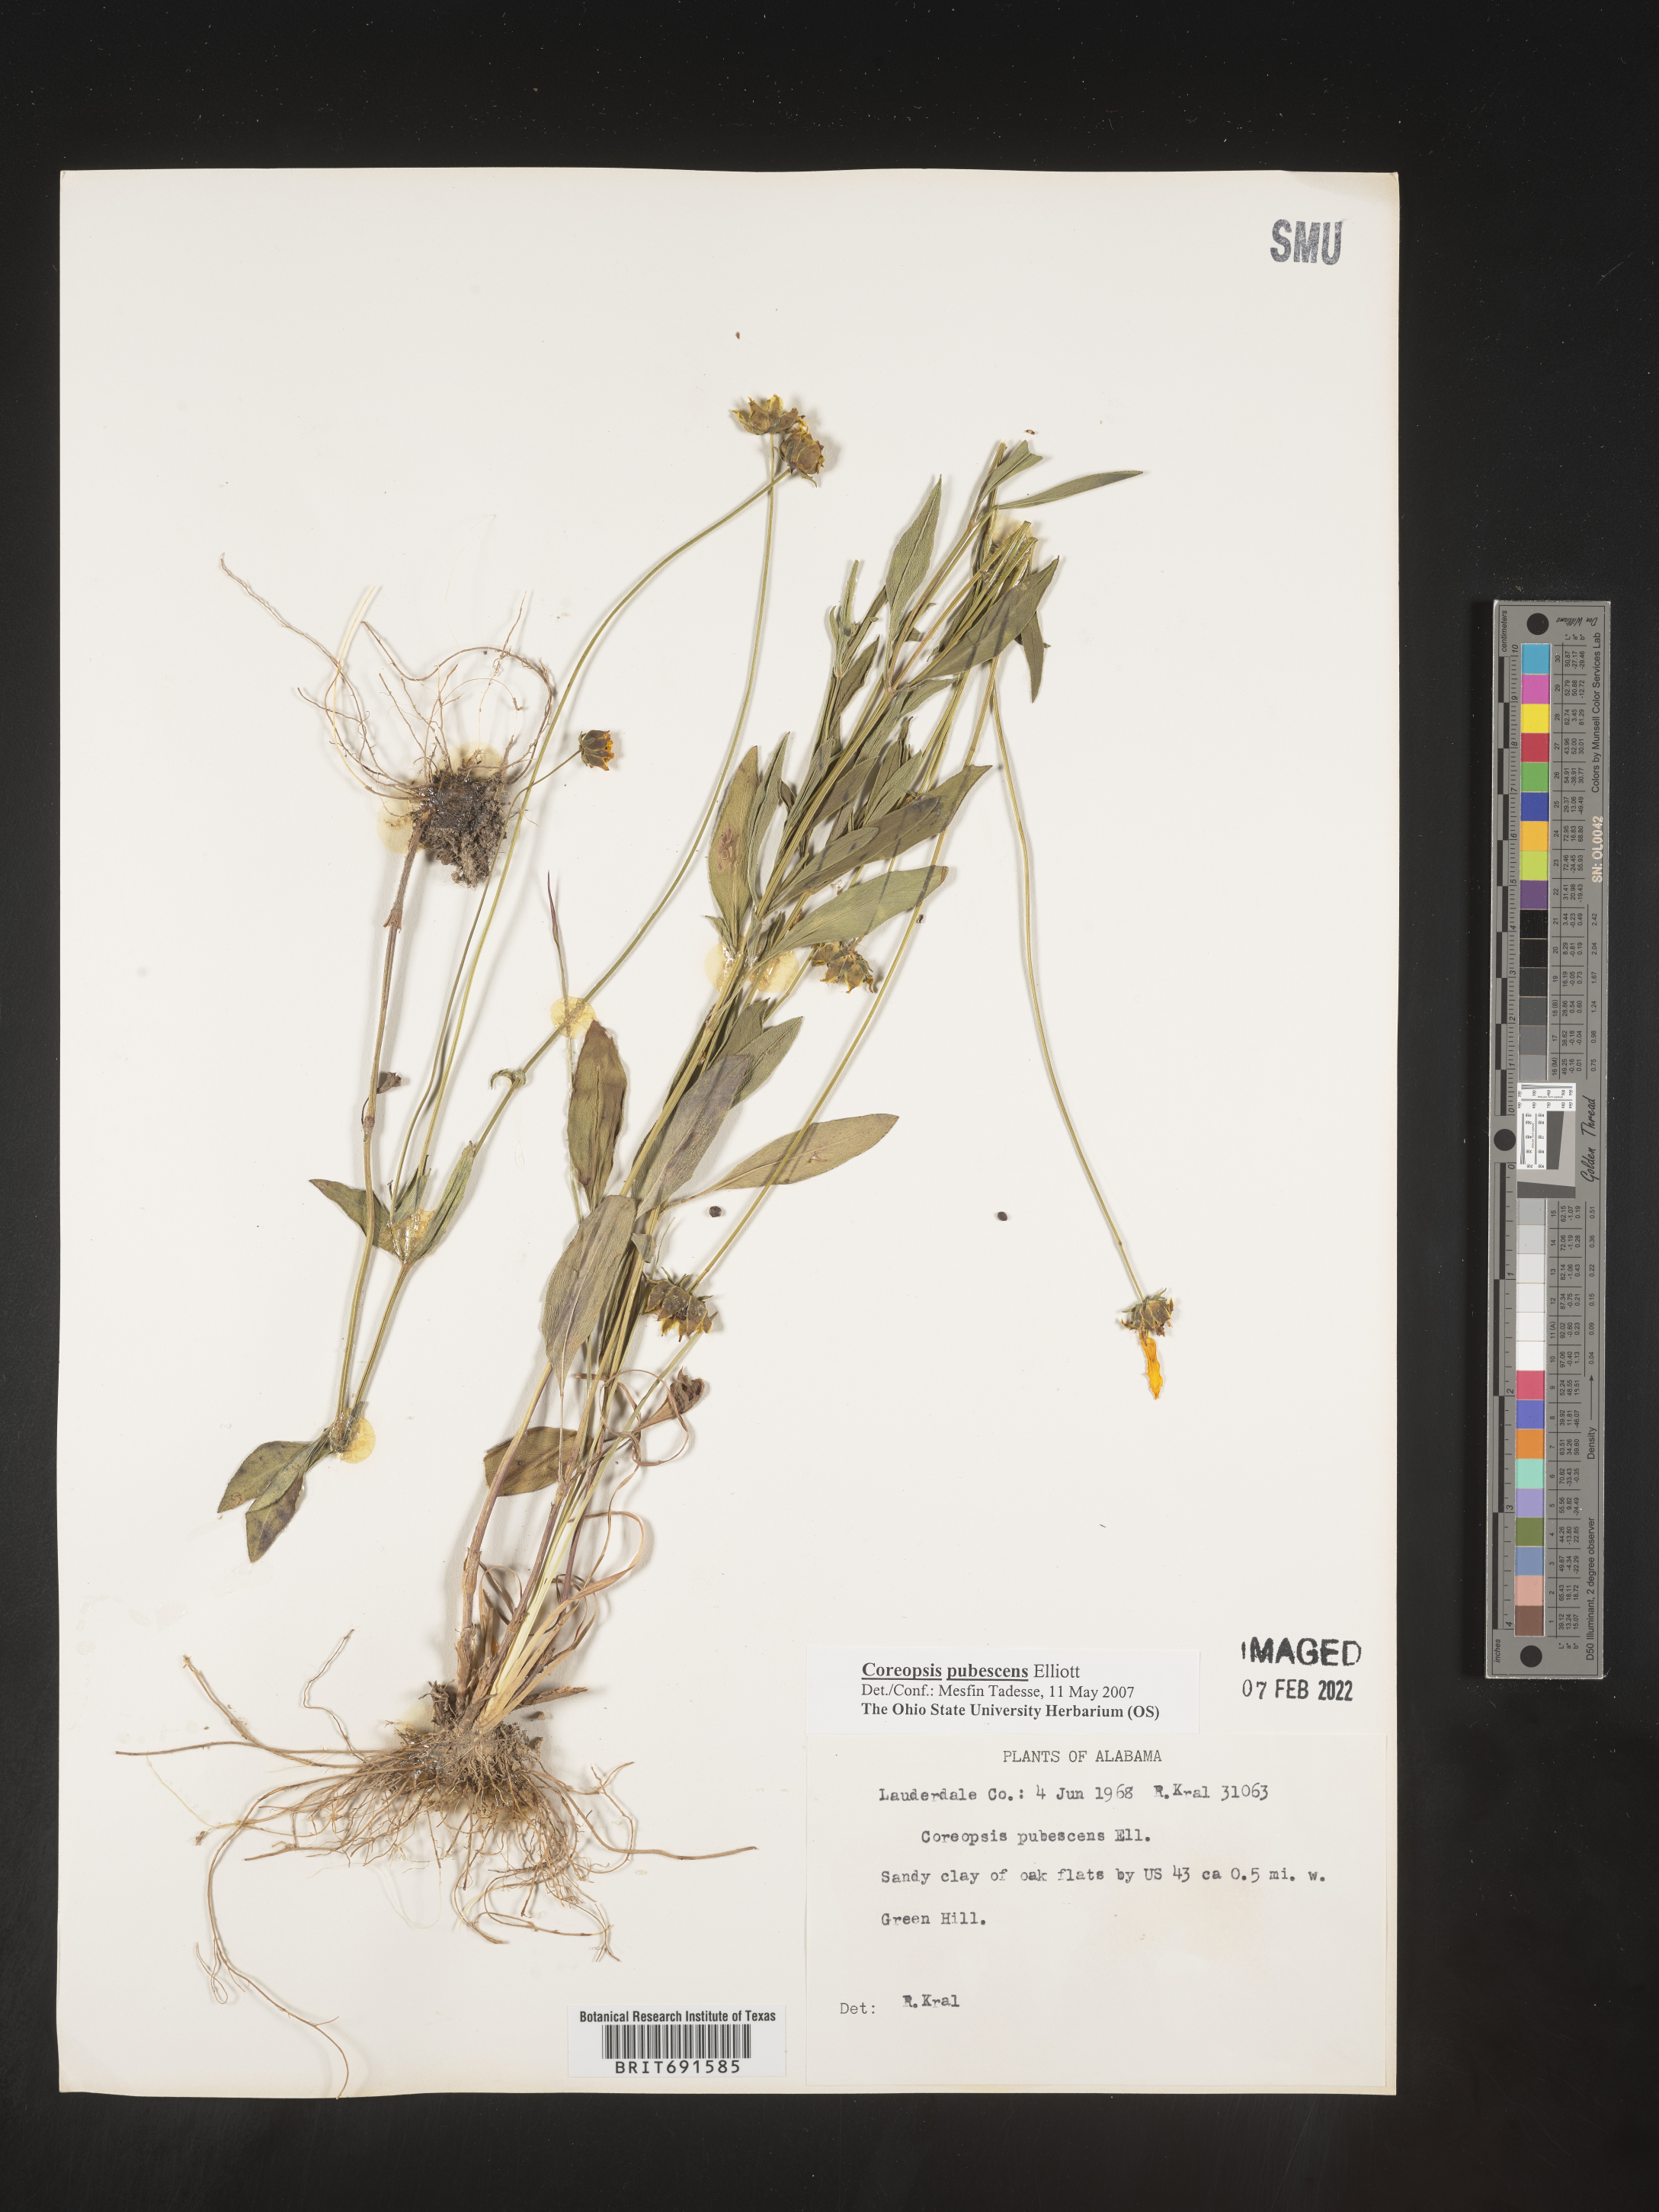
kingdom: Plantae
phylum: Tracheophyta
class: Magnoliopsida
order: Asterales
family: Asteraceae
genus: Coreopsis
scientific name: Coreopsis pubescens
